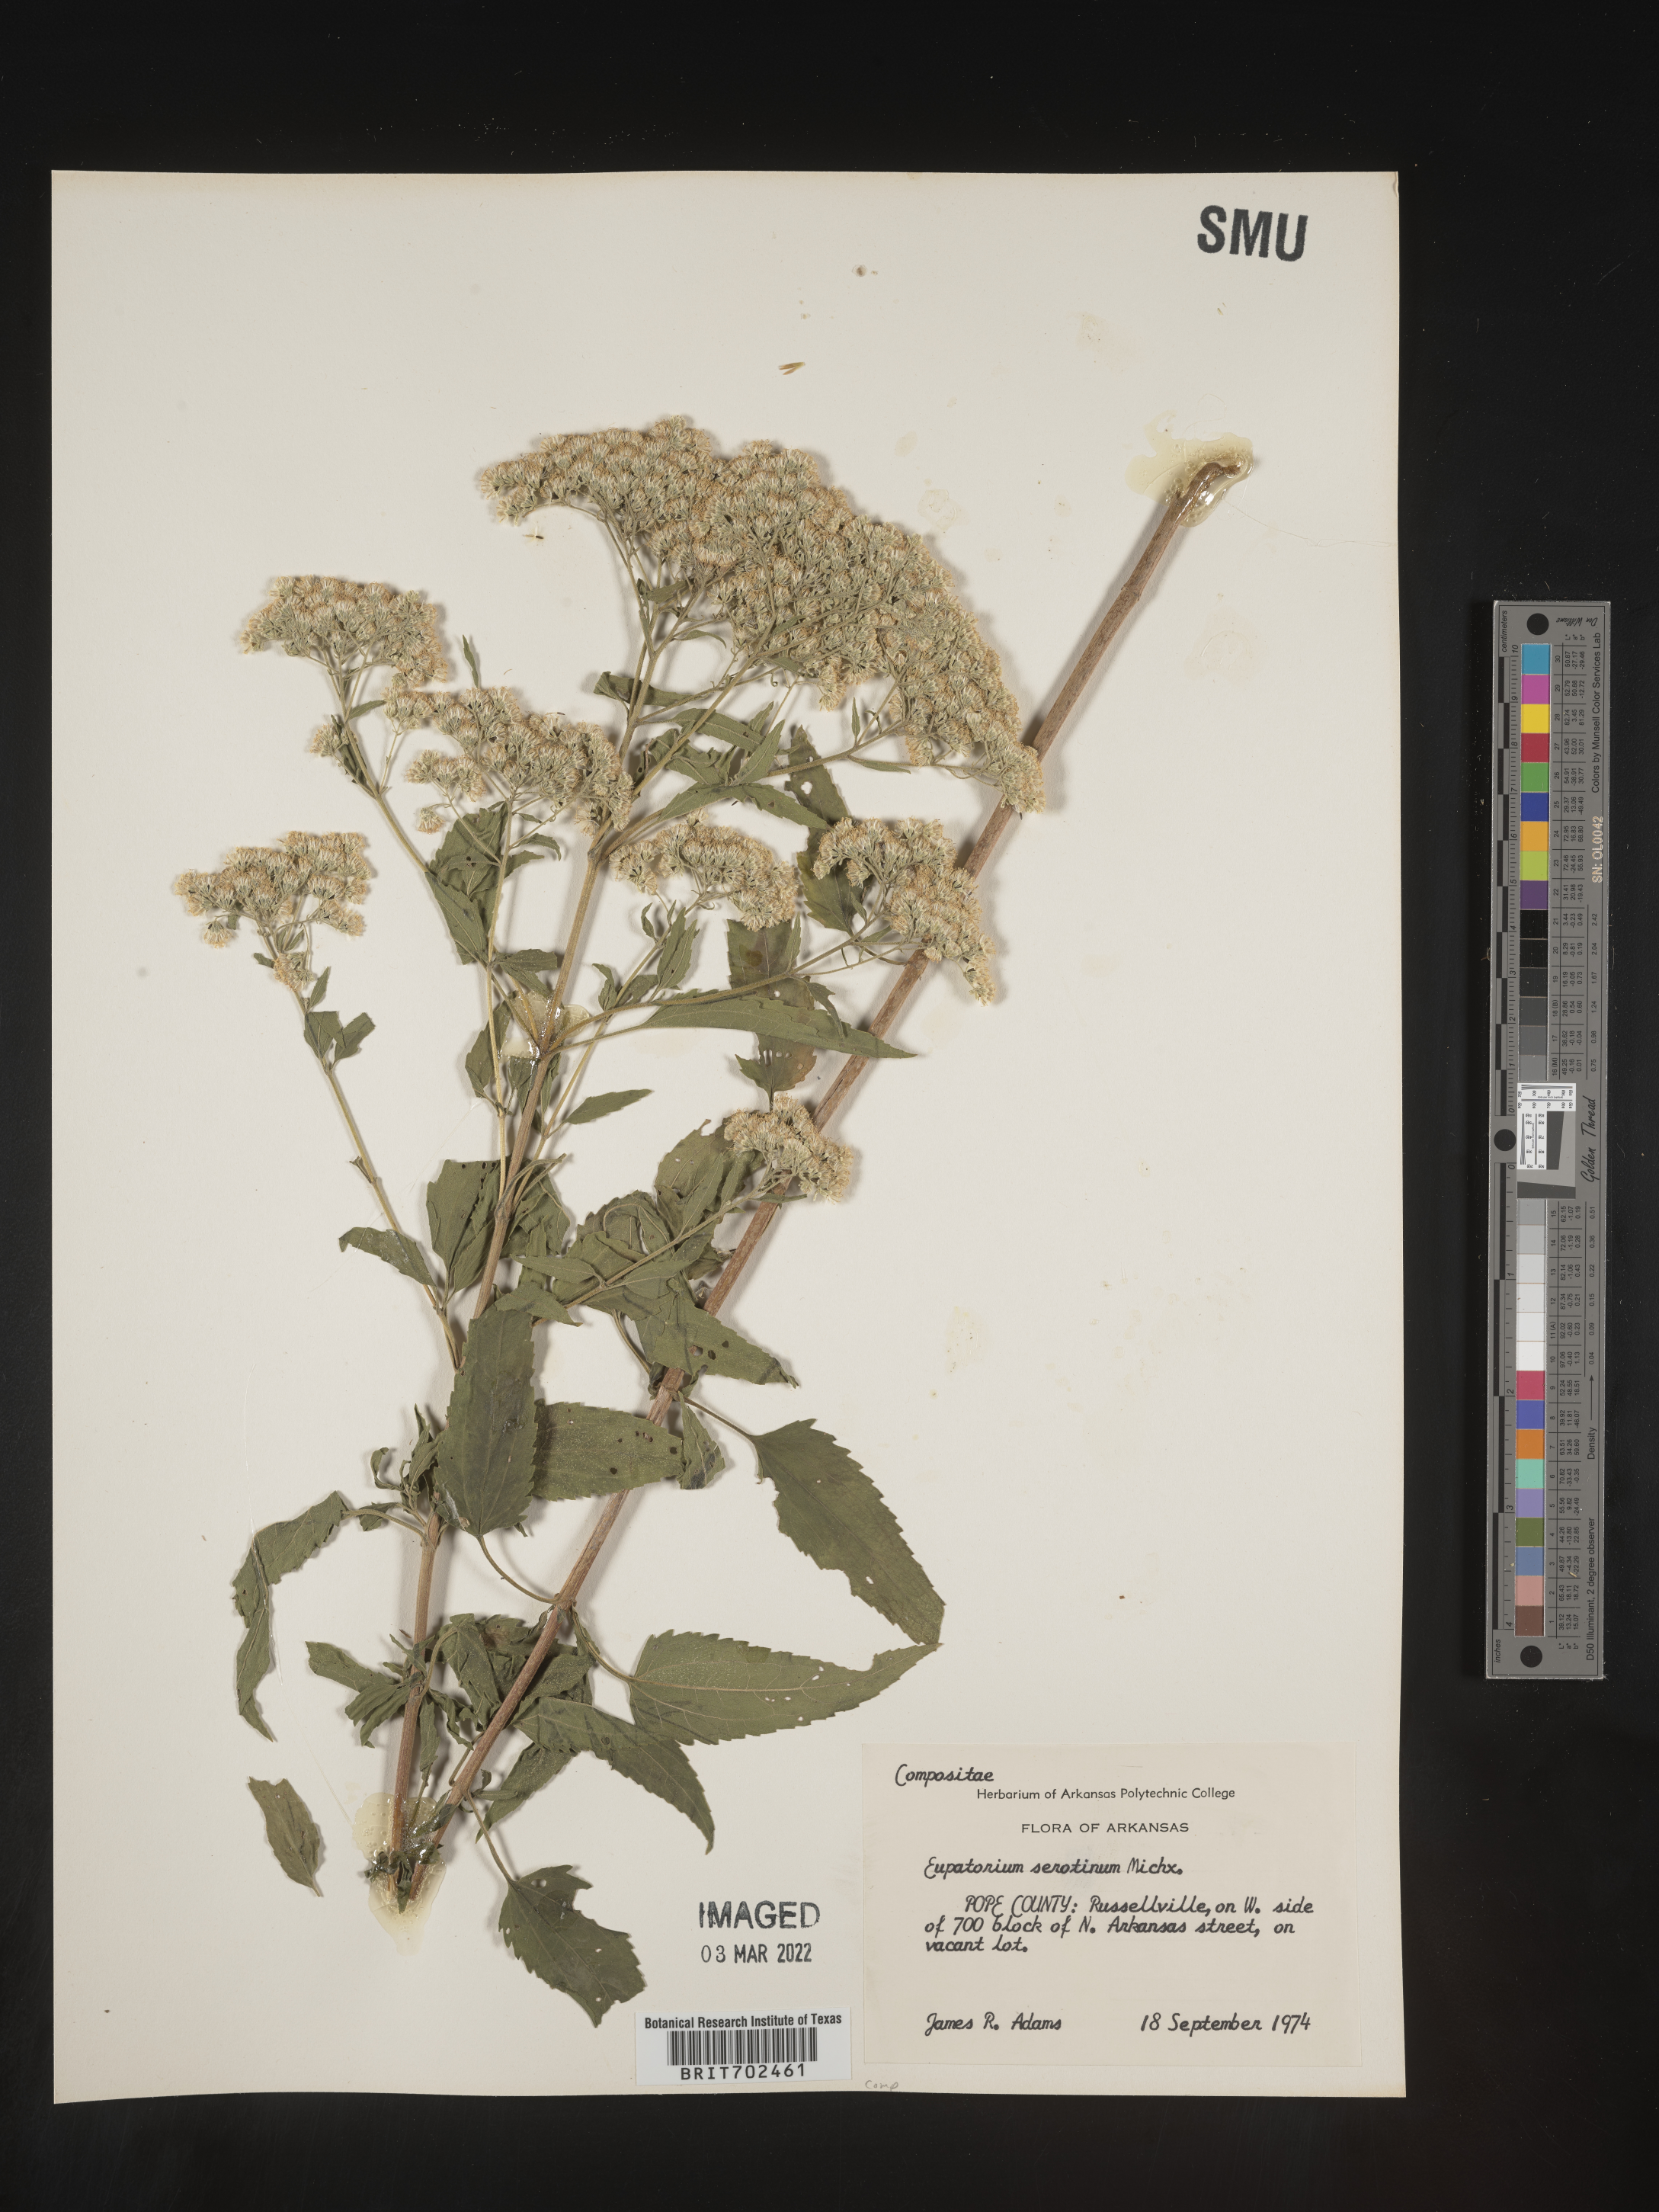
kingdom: Plantae
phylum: Tracheophyta
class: Magnoliopsida
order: Asterales
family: Asteraceae
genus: Eupatorium
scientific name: Eupatorium serotinum
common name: Late boneset
